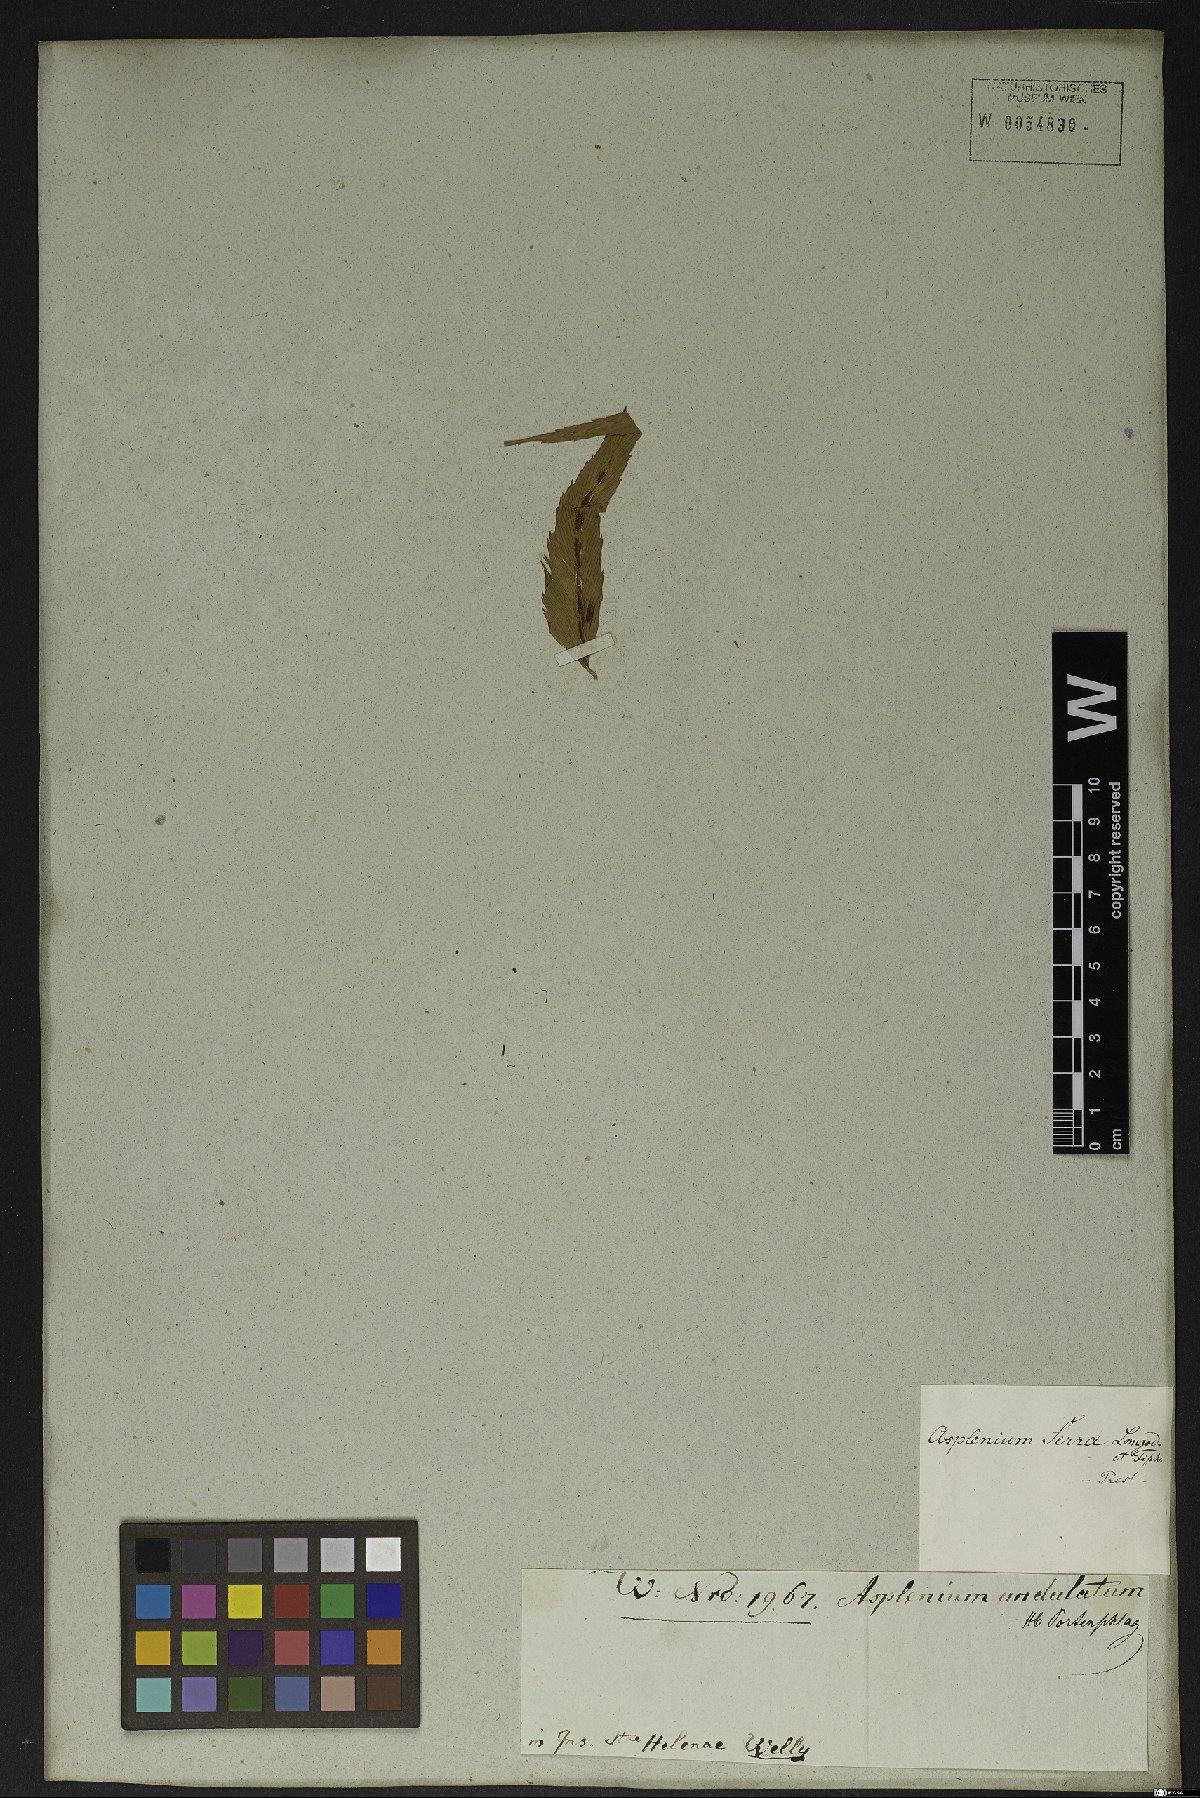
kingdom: Plantae
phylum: Tracheophyta
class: Polypodiopsida
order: Polypodiales
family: Aspleniaceae
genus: Asplenium
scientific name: Asplenium serra
